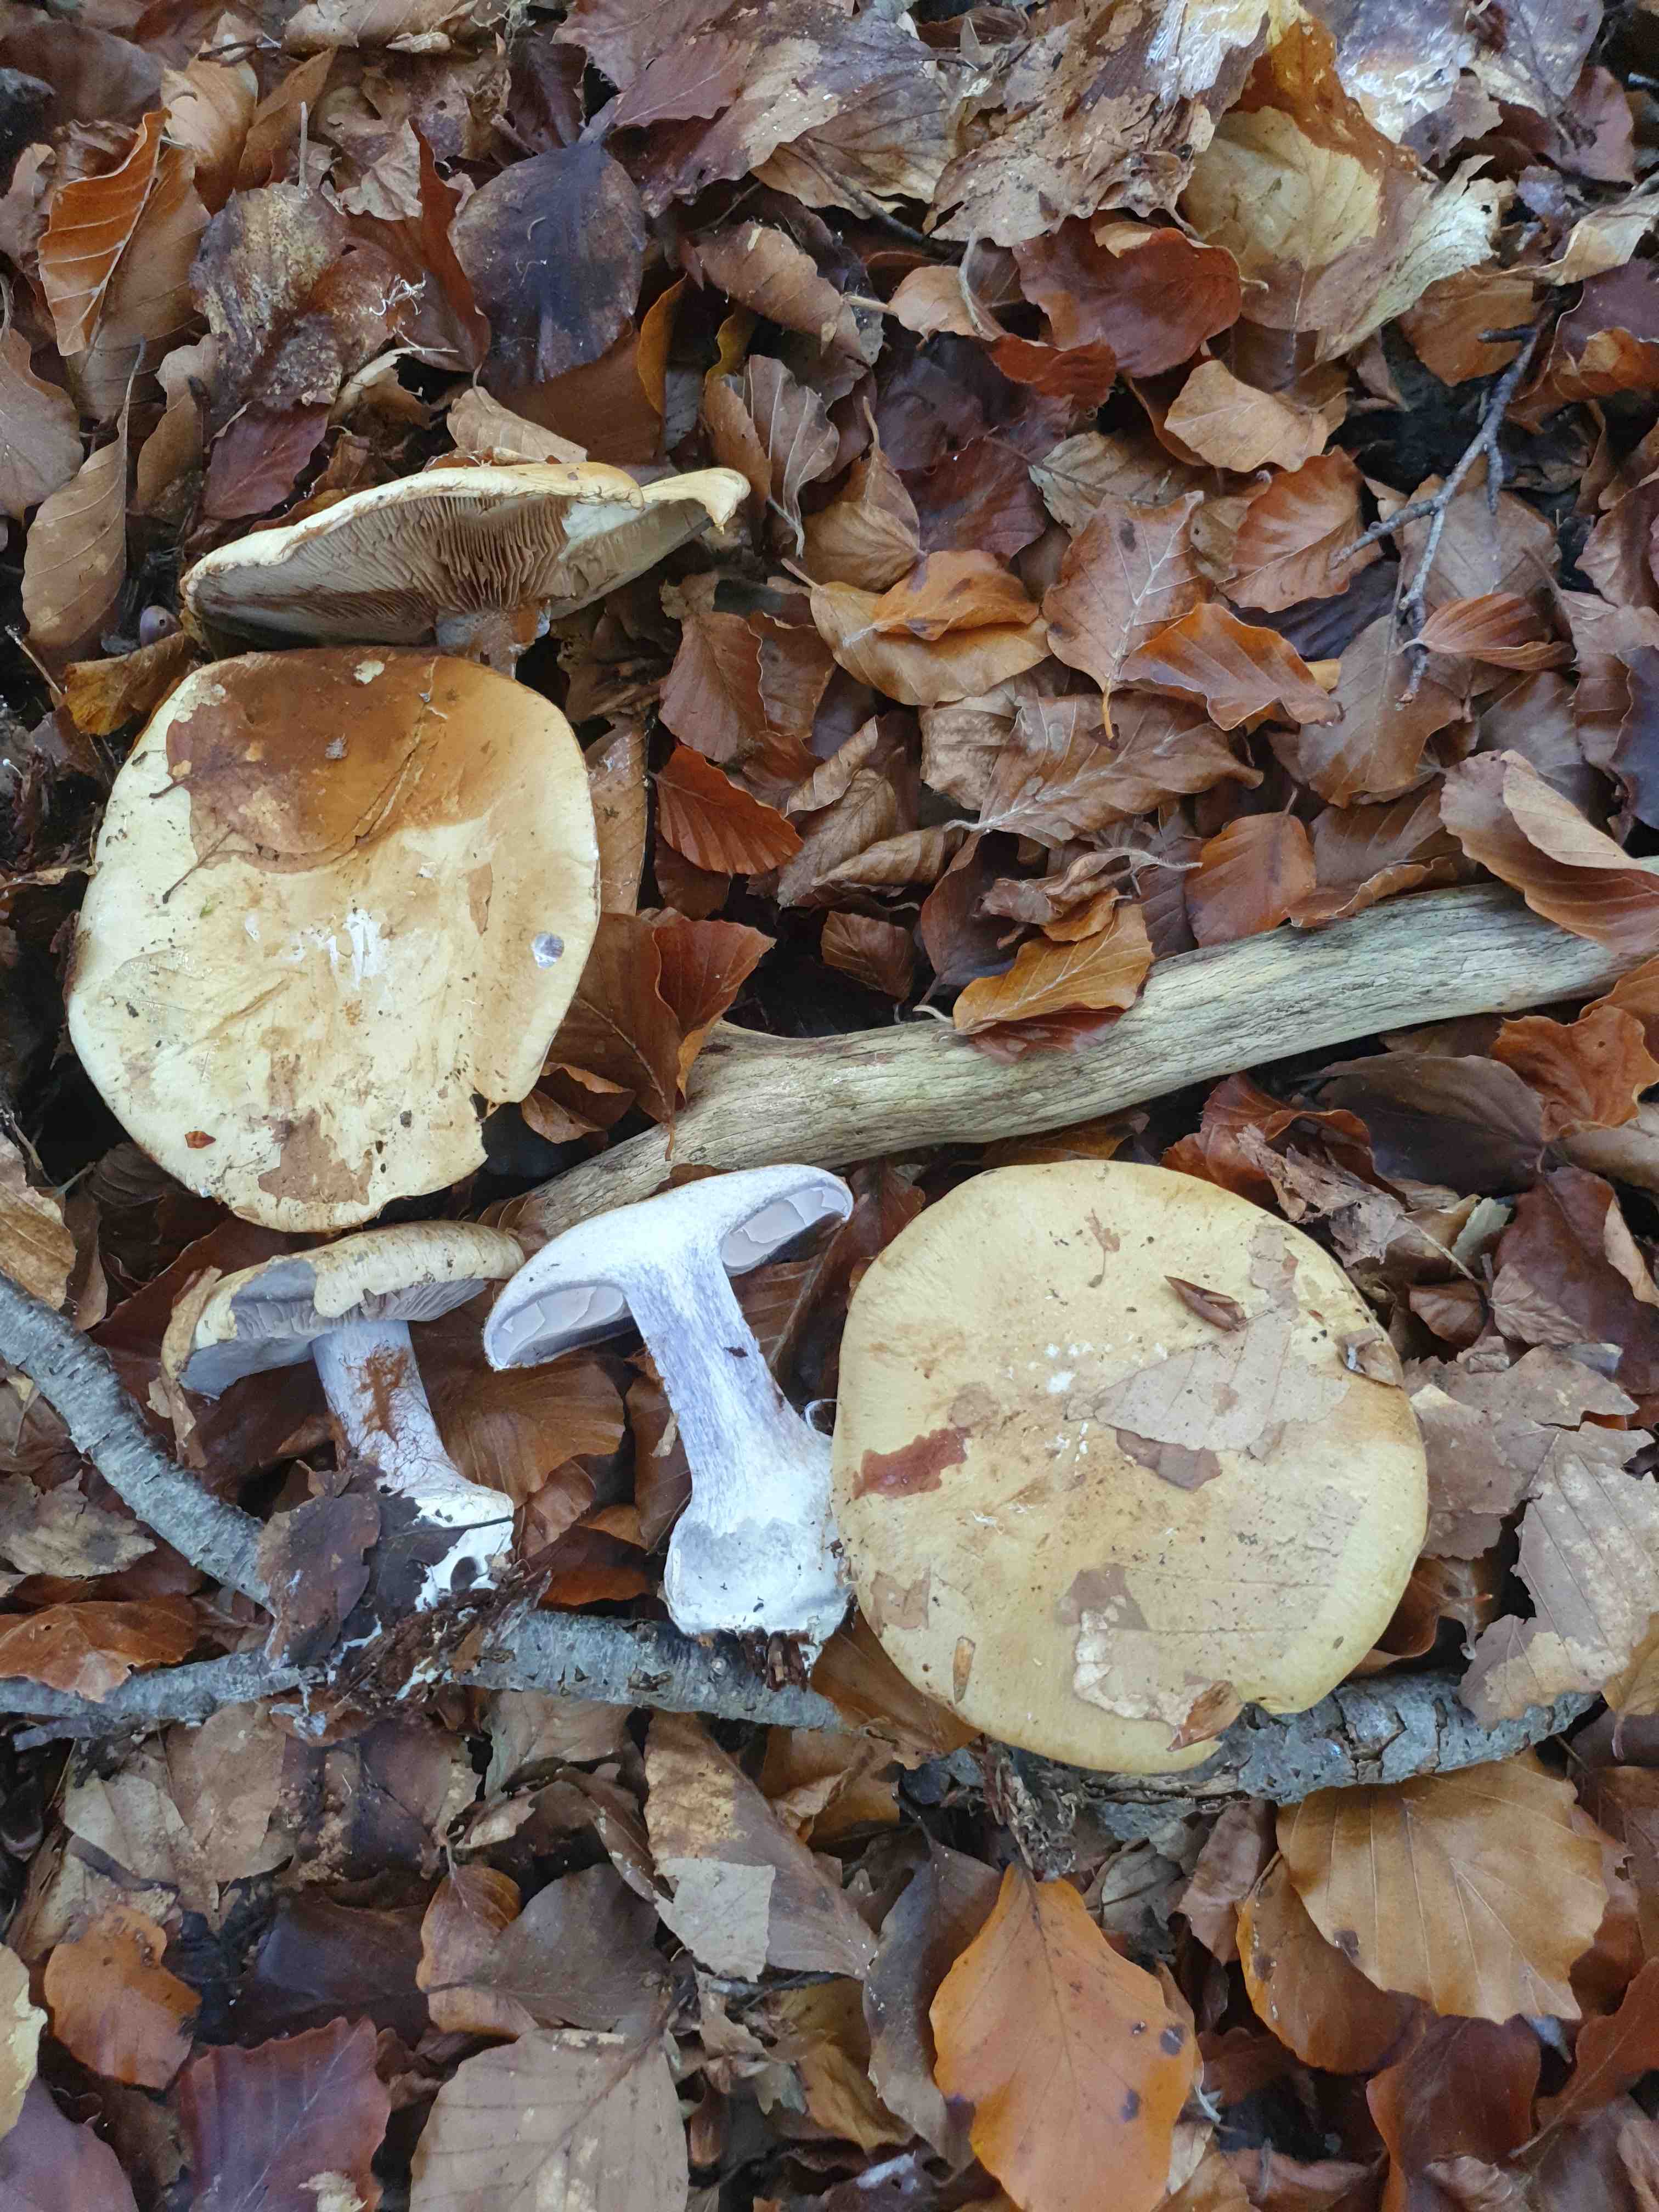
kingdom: Fungi
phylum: Basidiomycota
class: Agaricomycetes
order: Agaricales
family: Cortinariaceae
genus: Cortinarius
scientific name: Cortinarius anserinus
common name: bøge-slørhat
